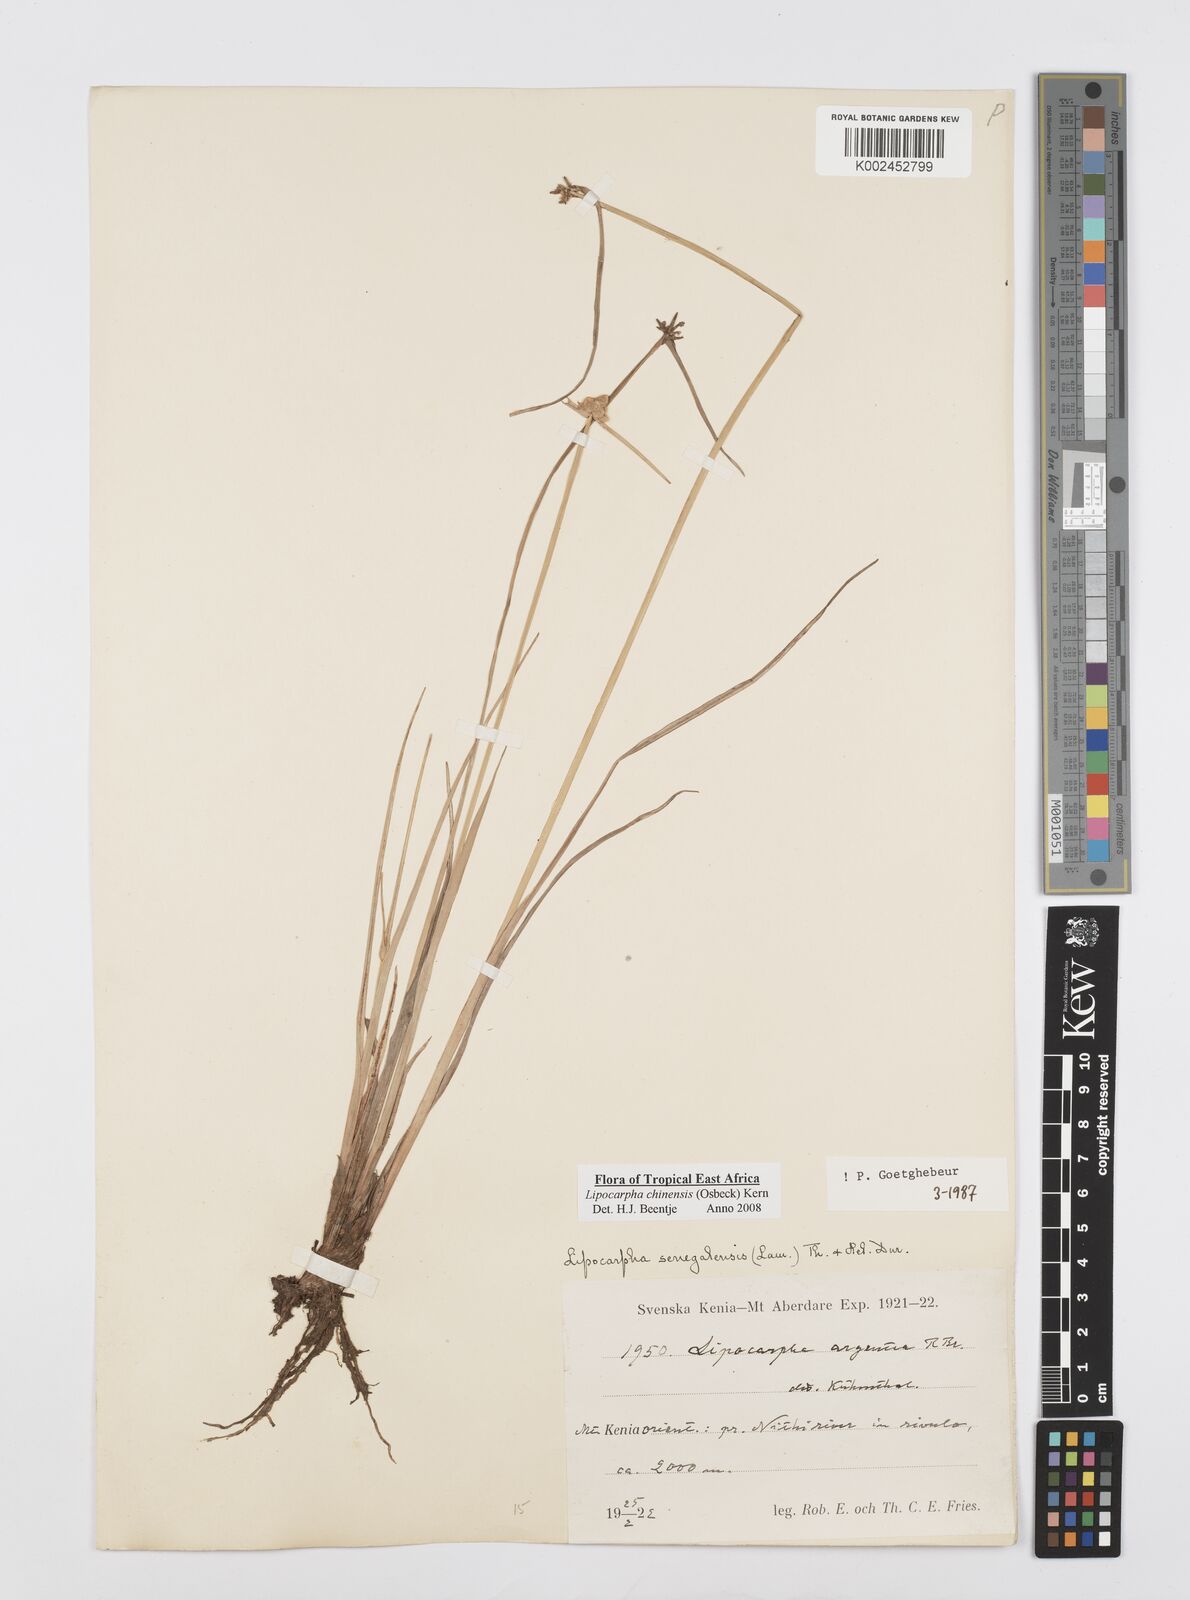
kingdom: Plantae
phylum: Tracheophyta
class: Liliopsida
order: Poales
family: Cyperaceae
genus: Cyperus
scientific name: Cyperus albescens
